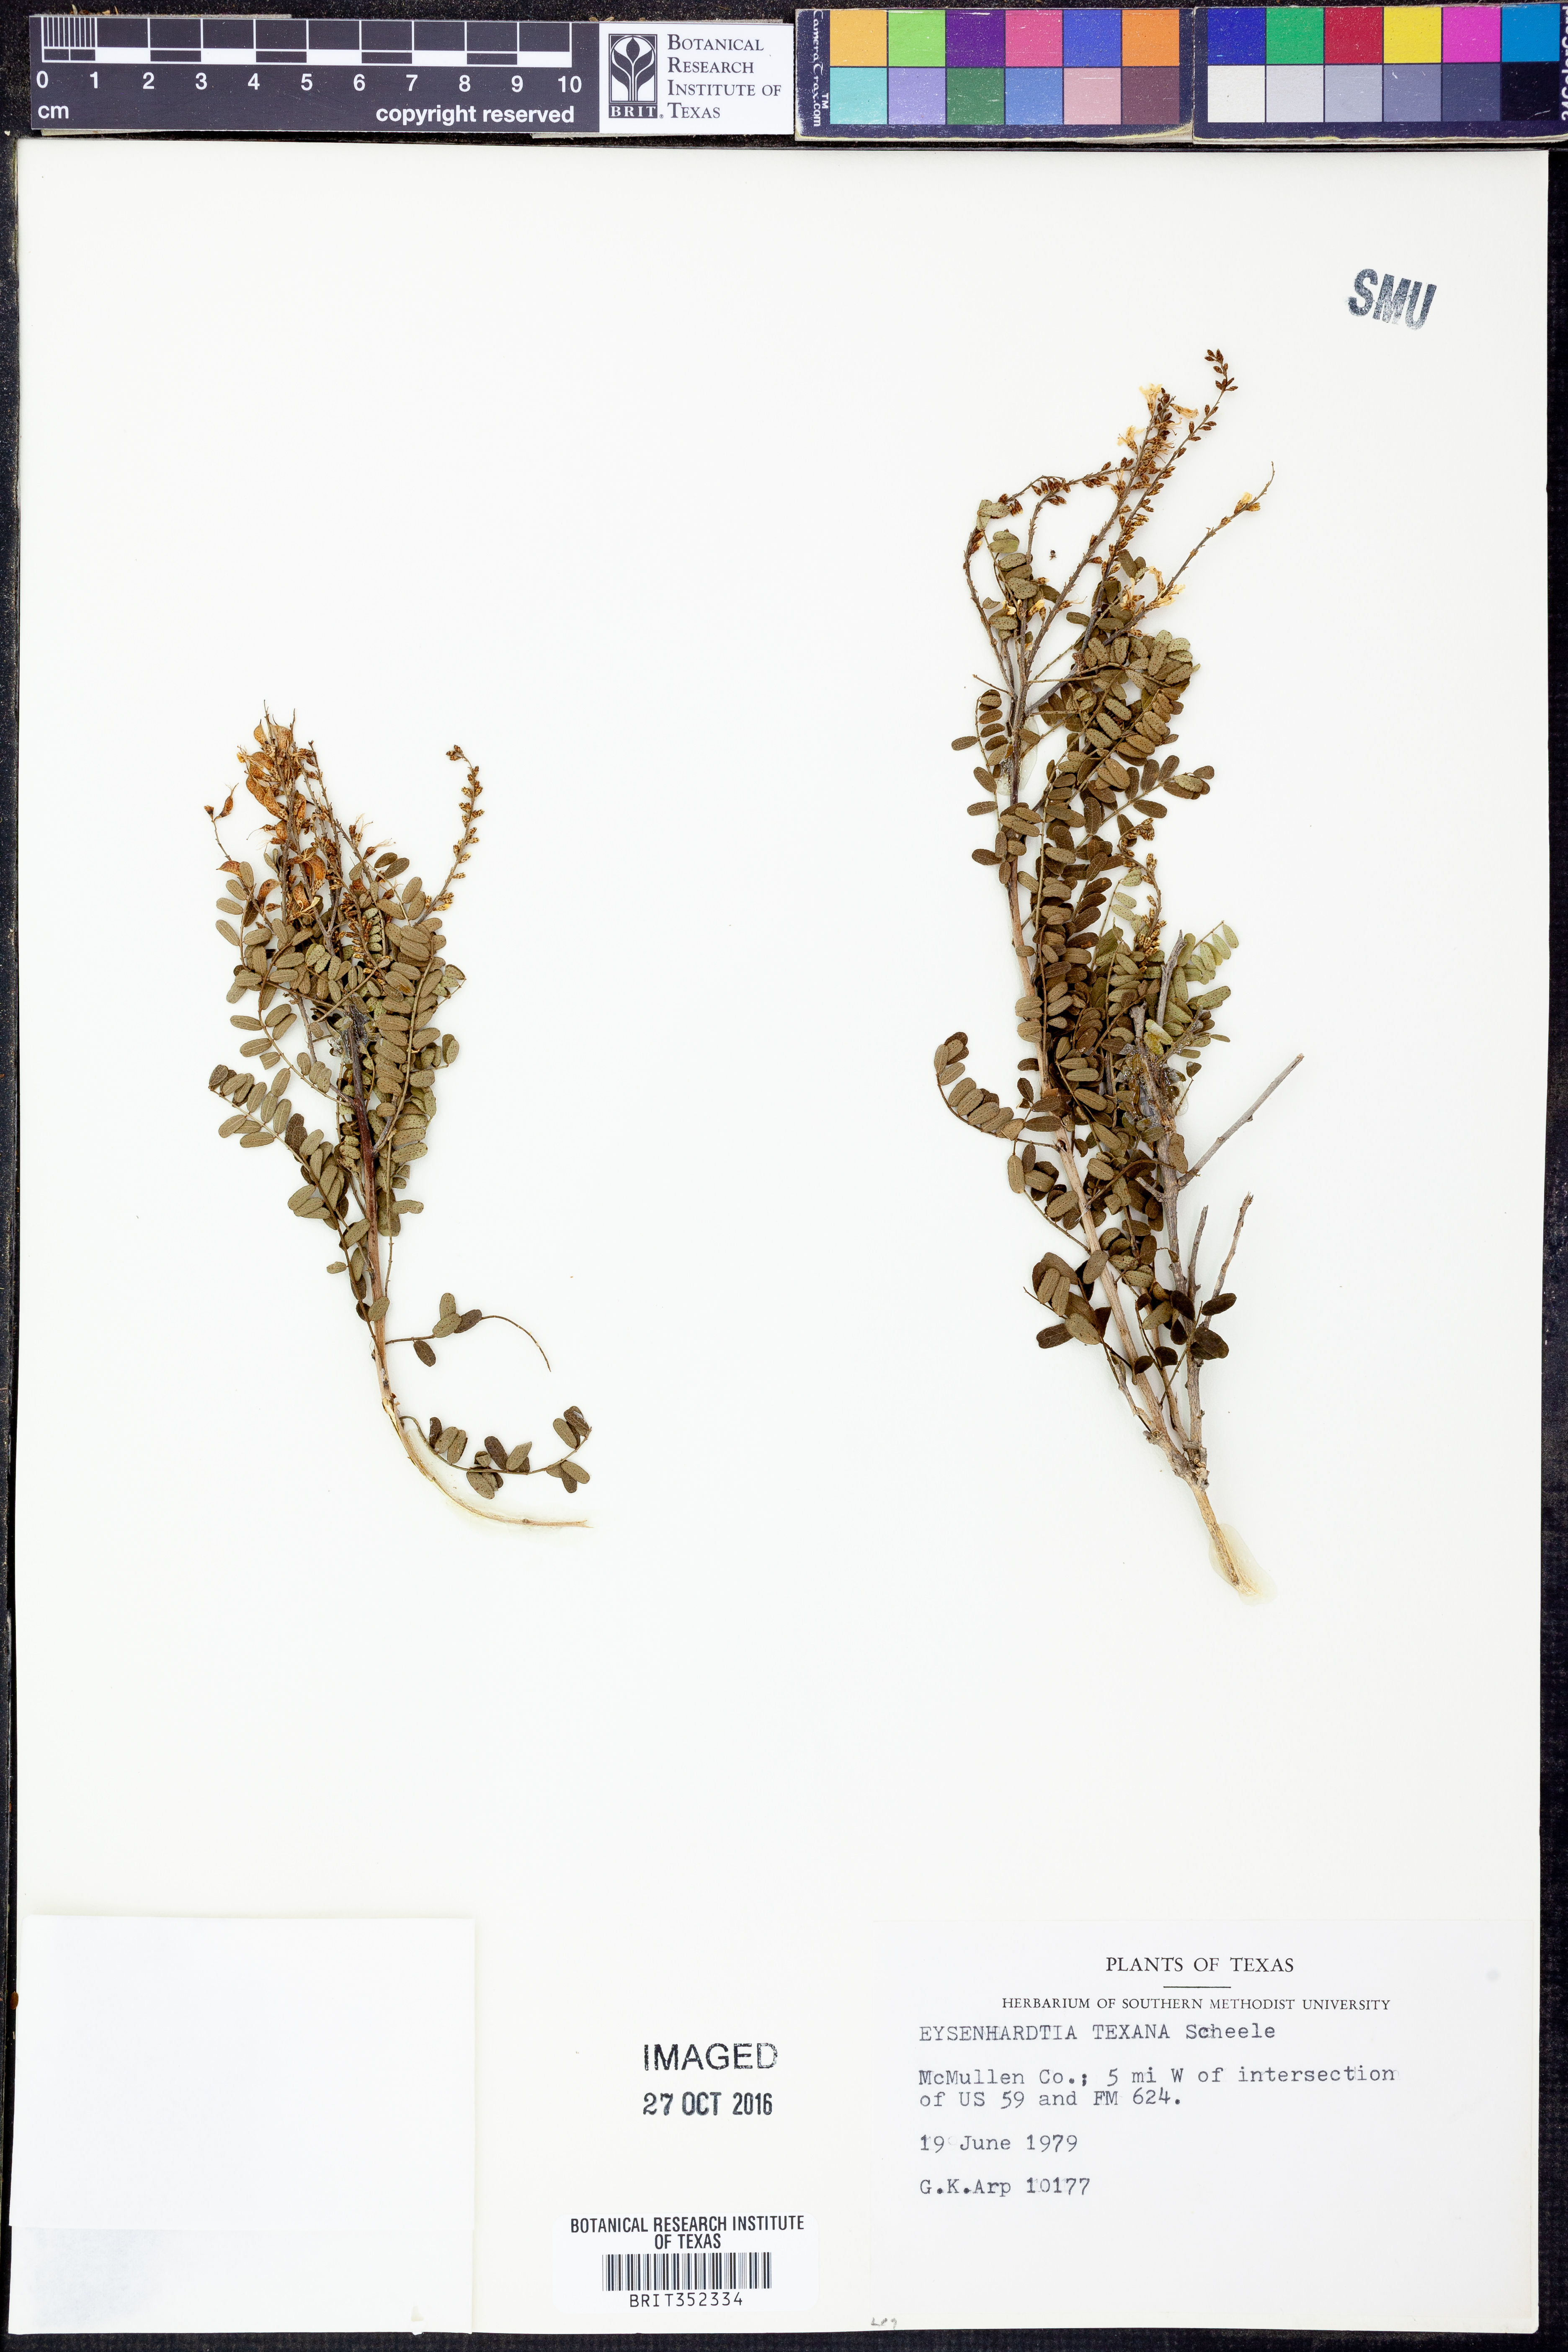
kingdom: Plantae
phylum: Tracheophyta
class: Magnoliopsida
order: Fabales
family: Fabaceae
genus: Eysenhardtia
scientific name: Eysenhardtia texana
